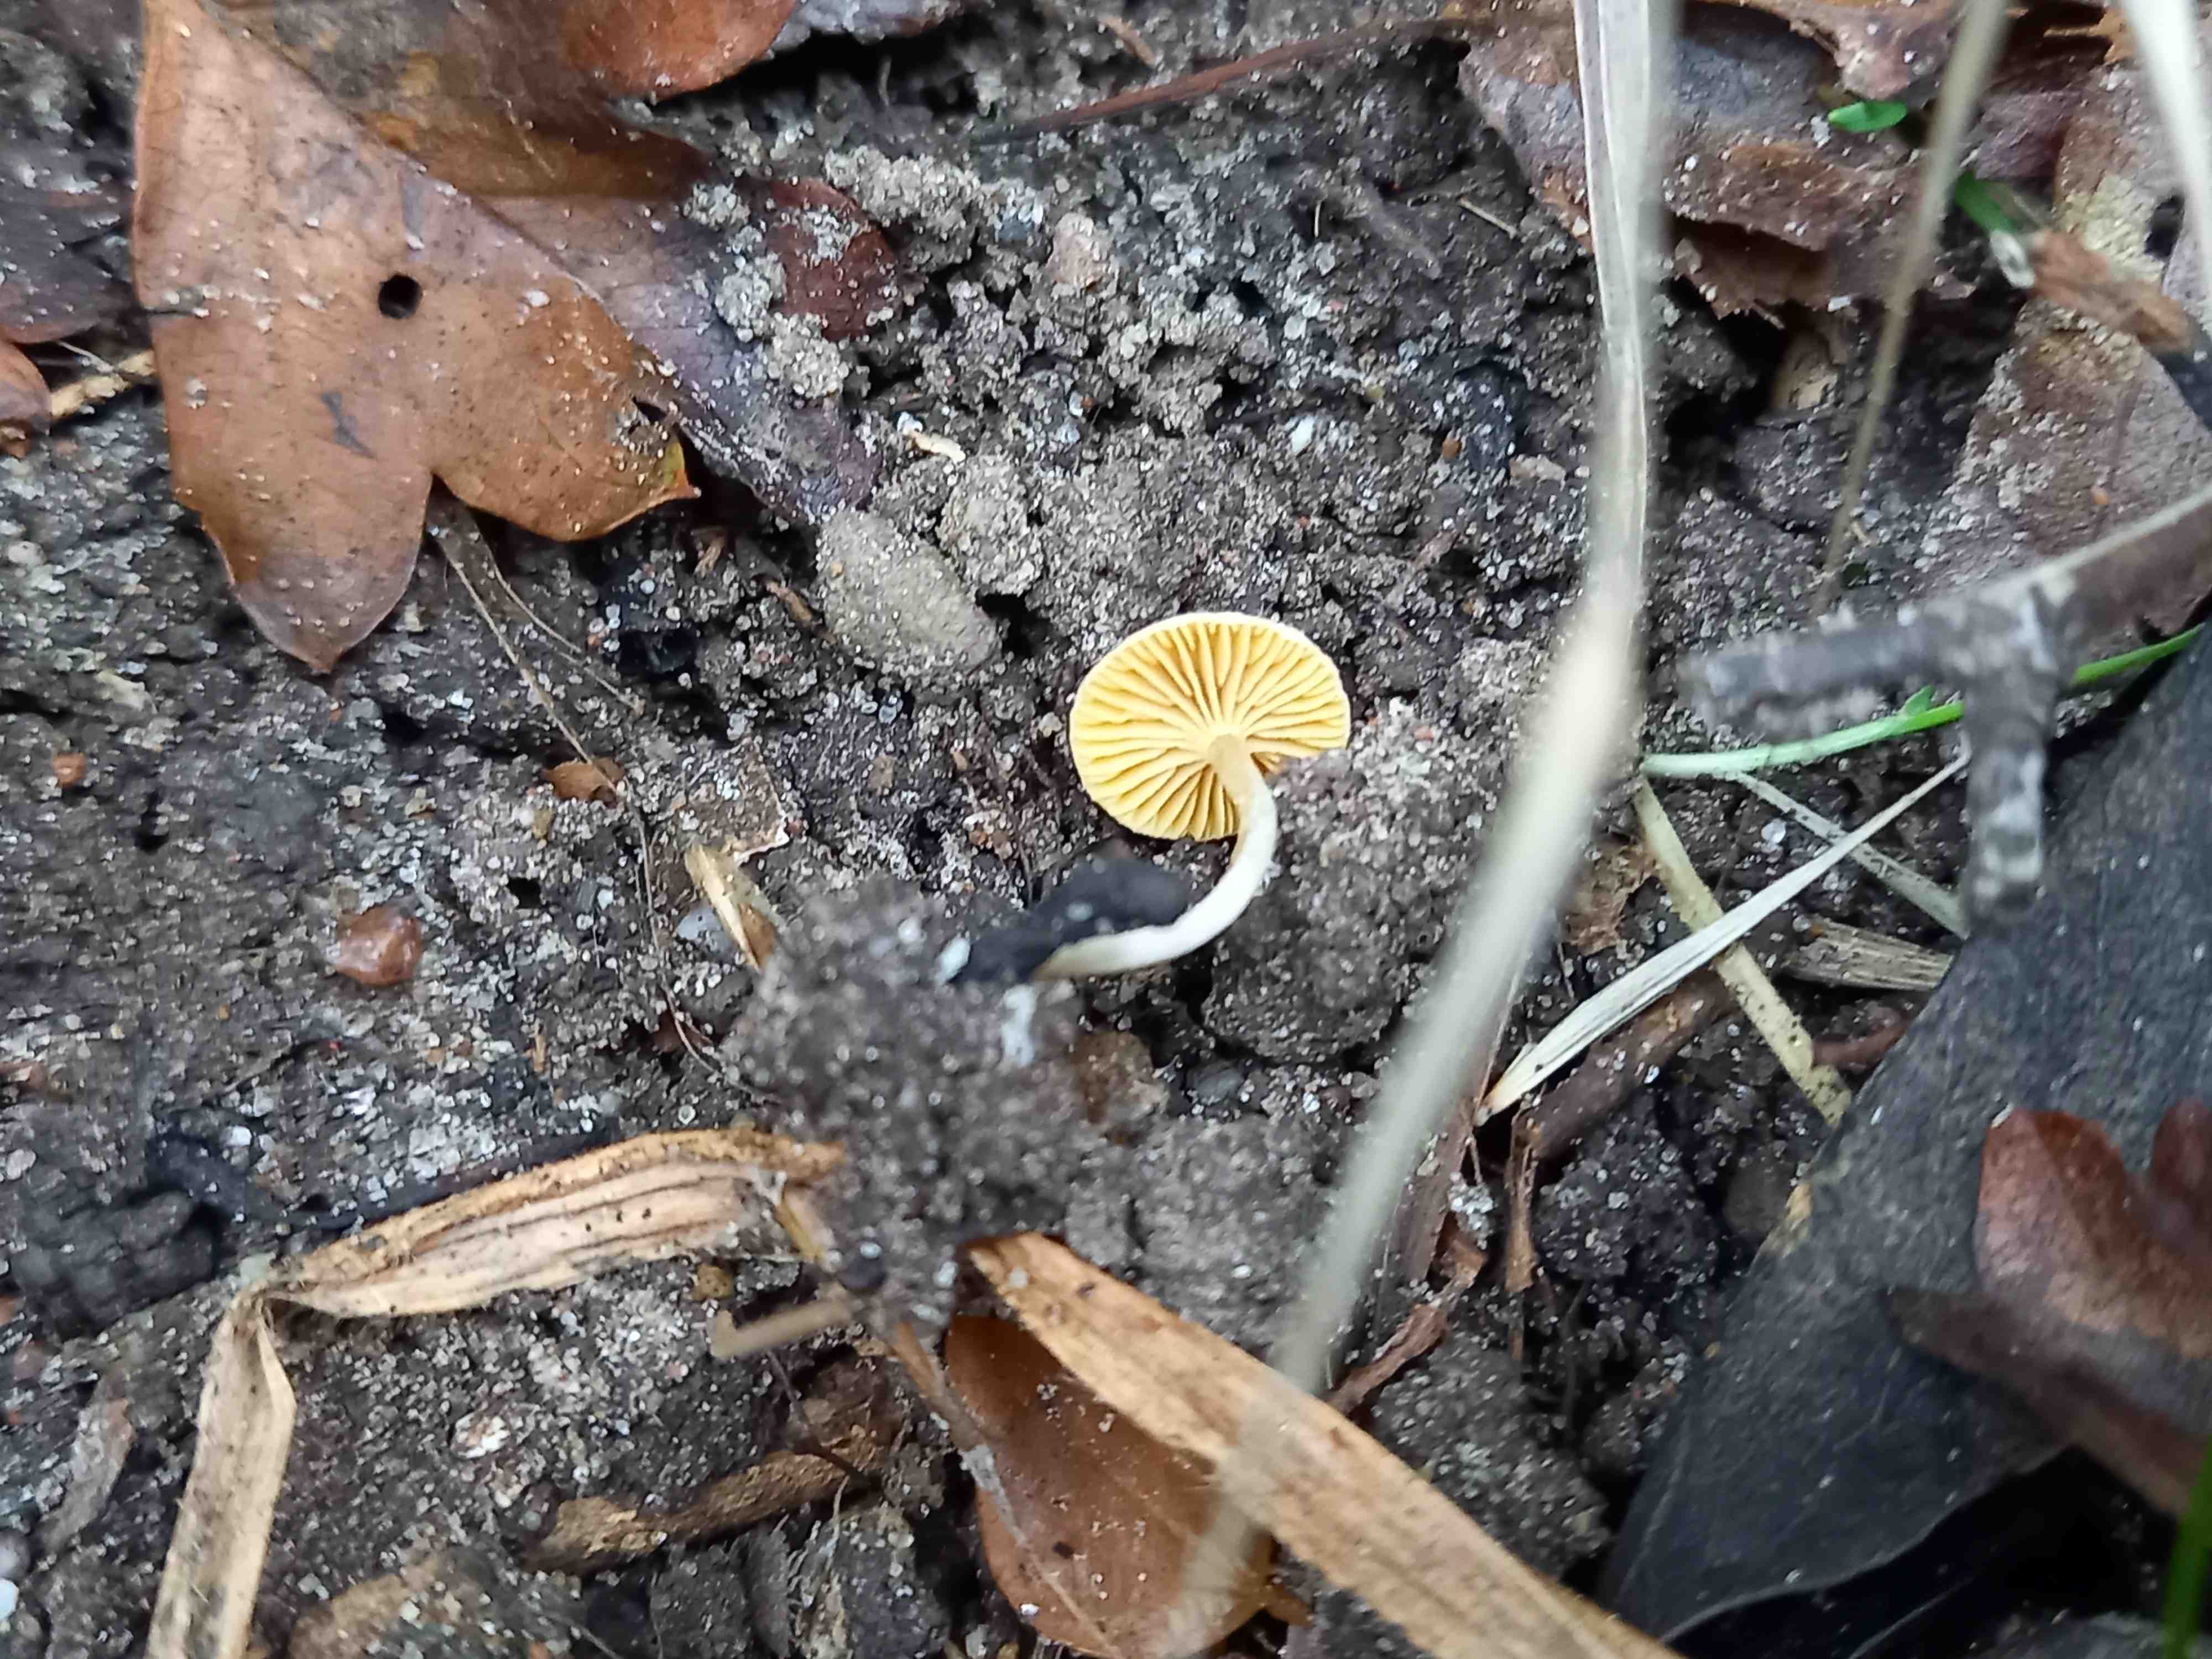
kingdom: Fungi
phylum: Basidiomycota
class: Agaricomycetes
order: Agaricales
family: Tubariaceae
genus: Tubaria
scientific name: Tubaria dispersa
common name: tjørne-fnughat
